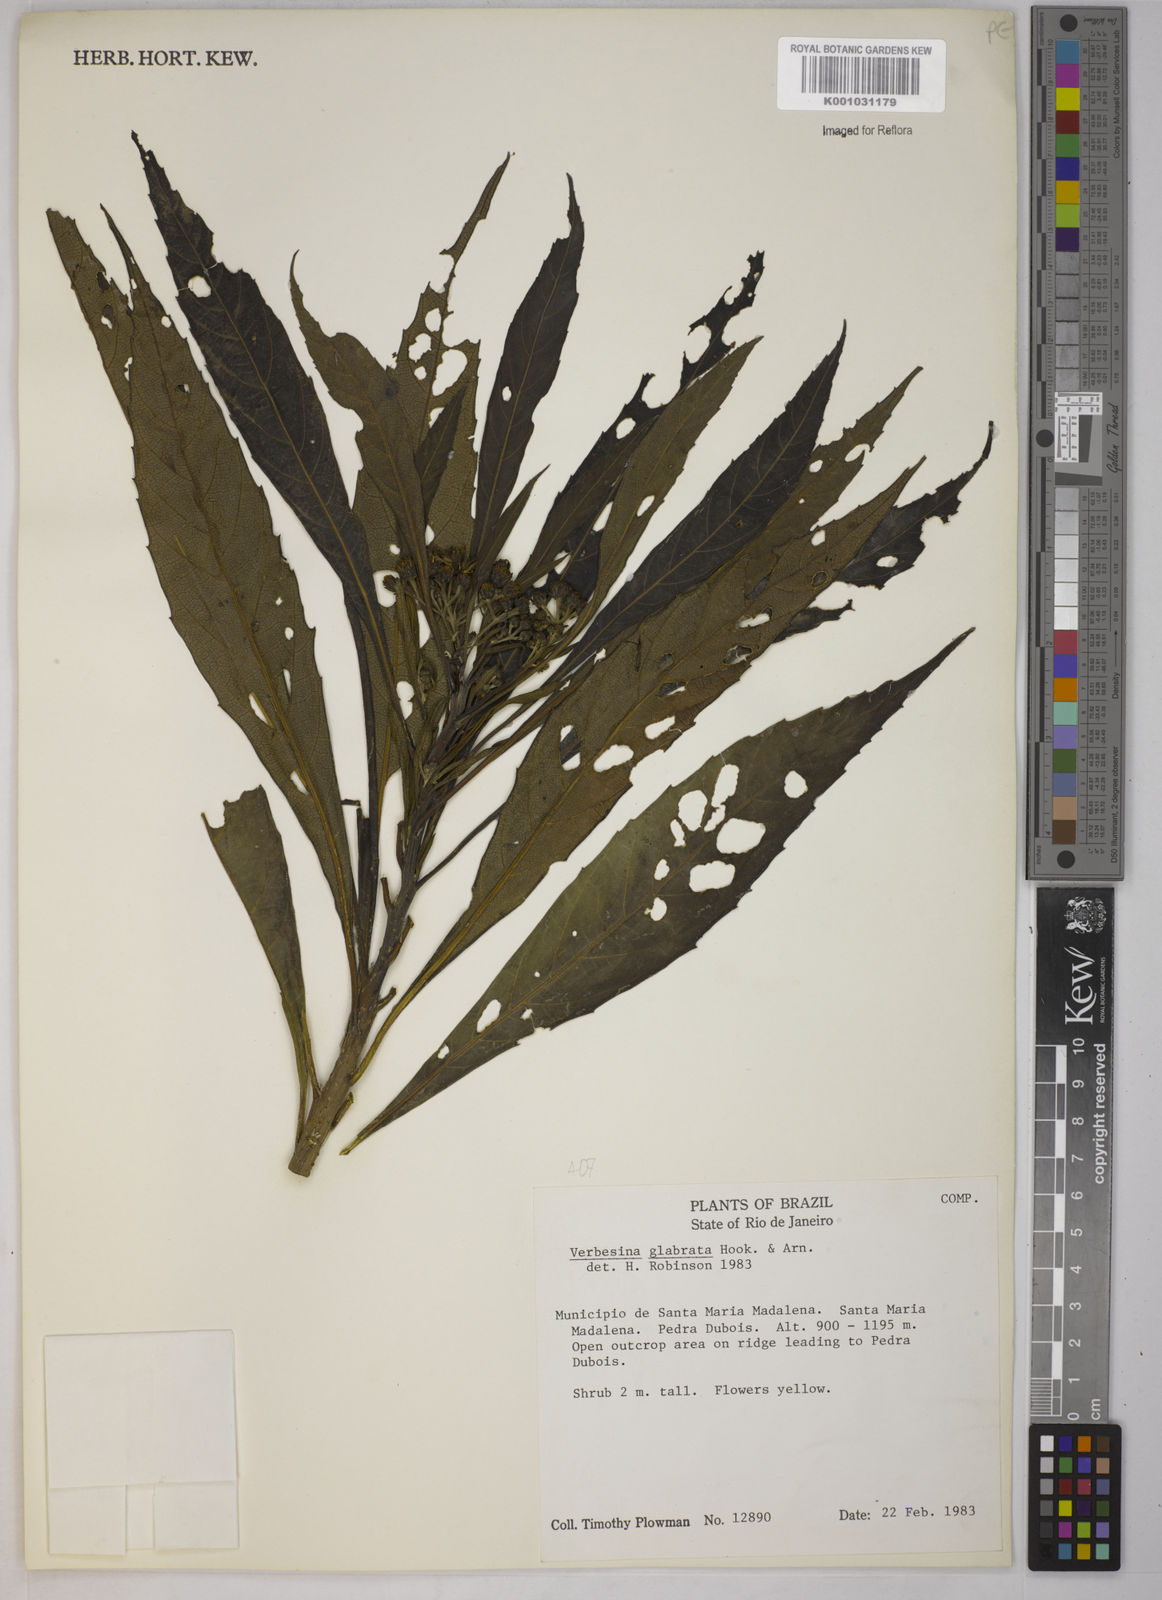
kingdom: Plantae
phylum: Tracheophyta
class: Magnoliopsida
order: Asterales
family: Asteraceae
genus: Verbesina
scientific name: Verbesina glabrata
